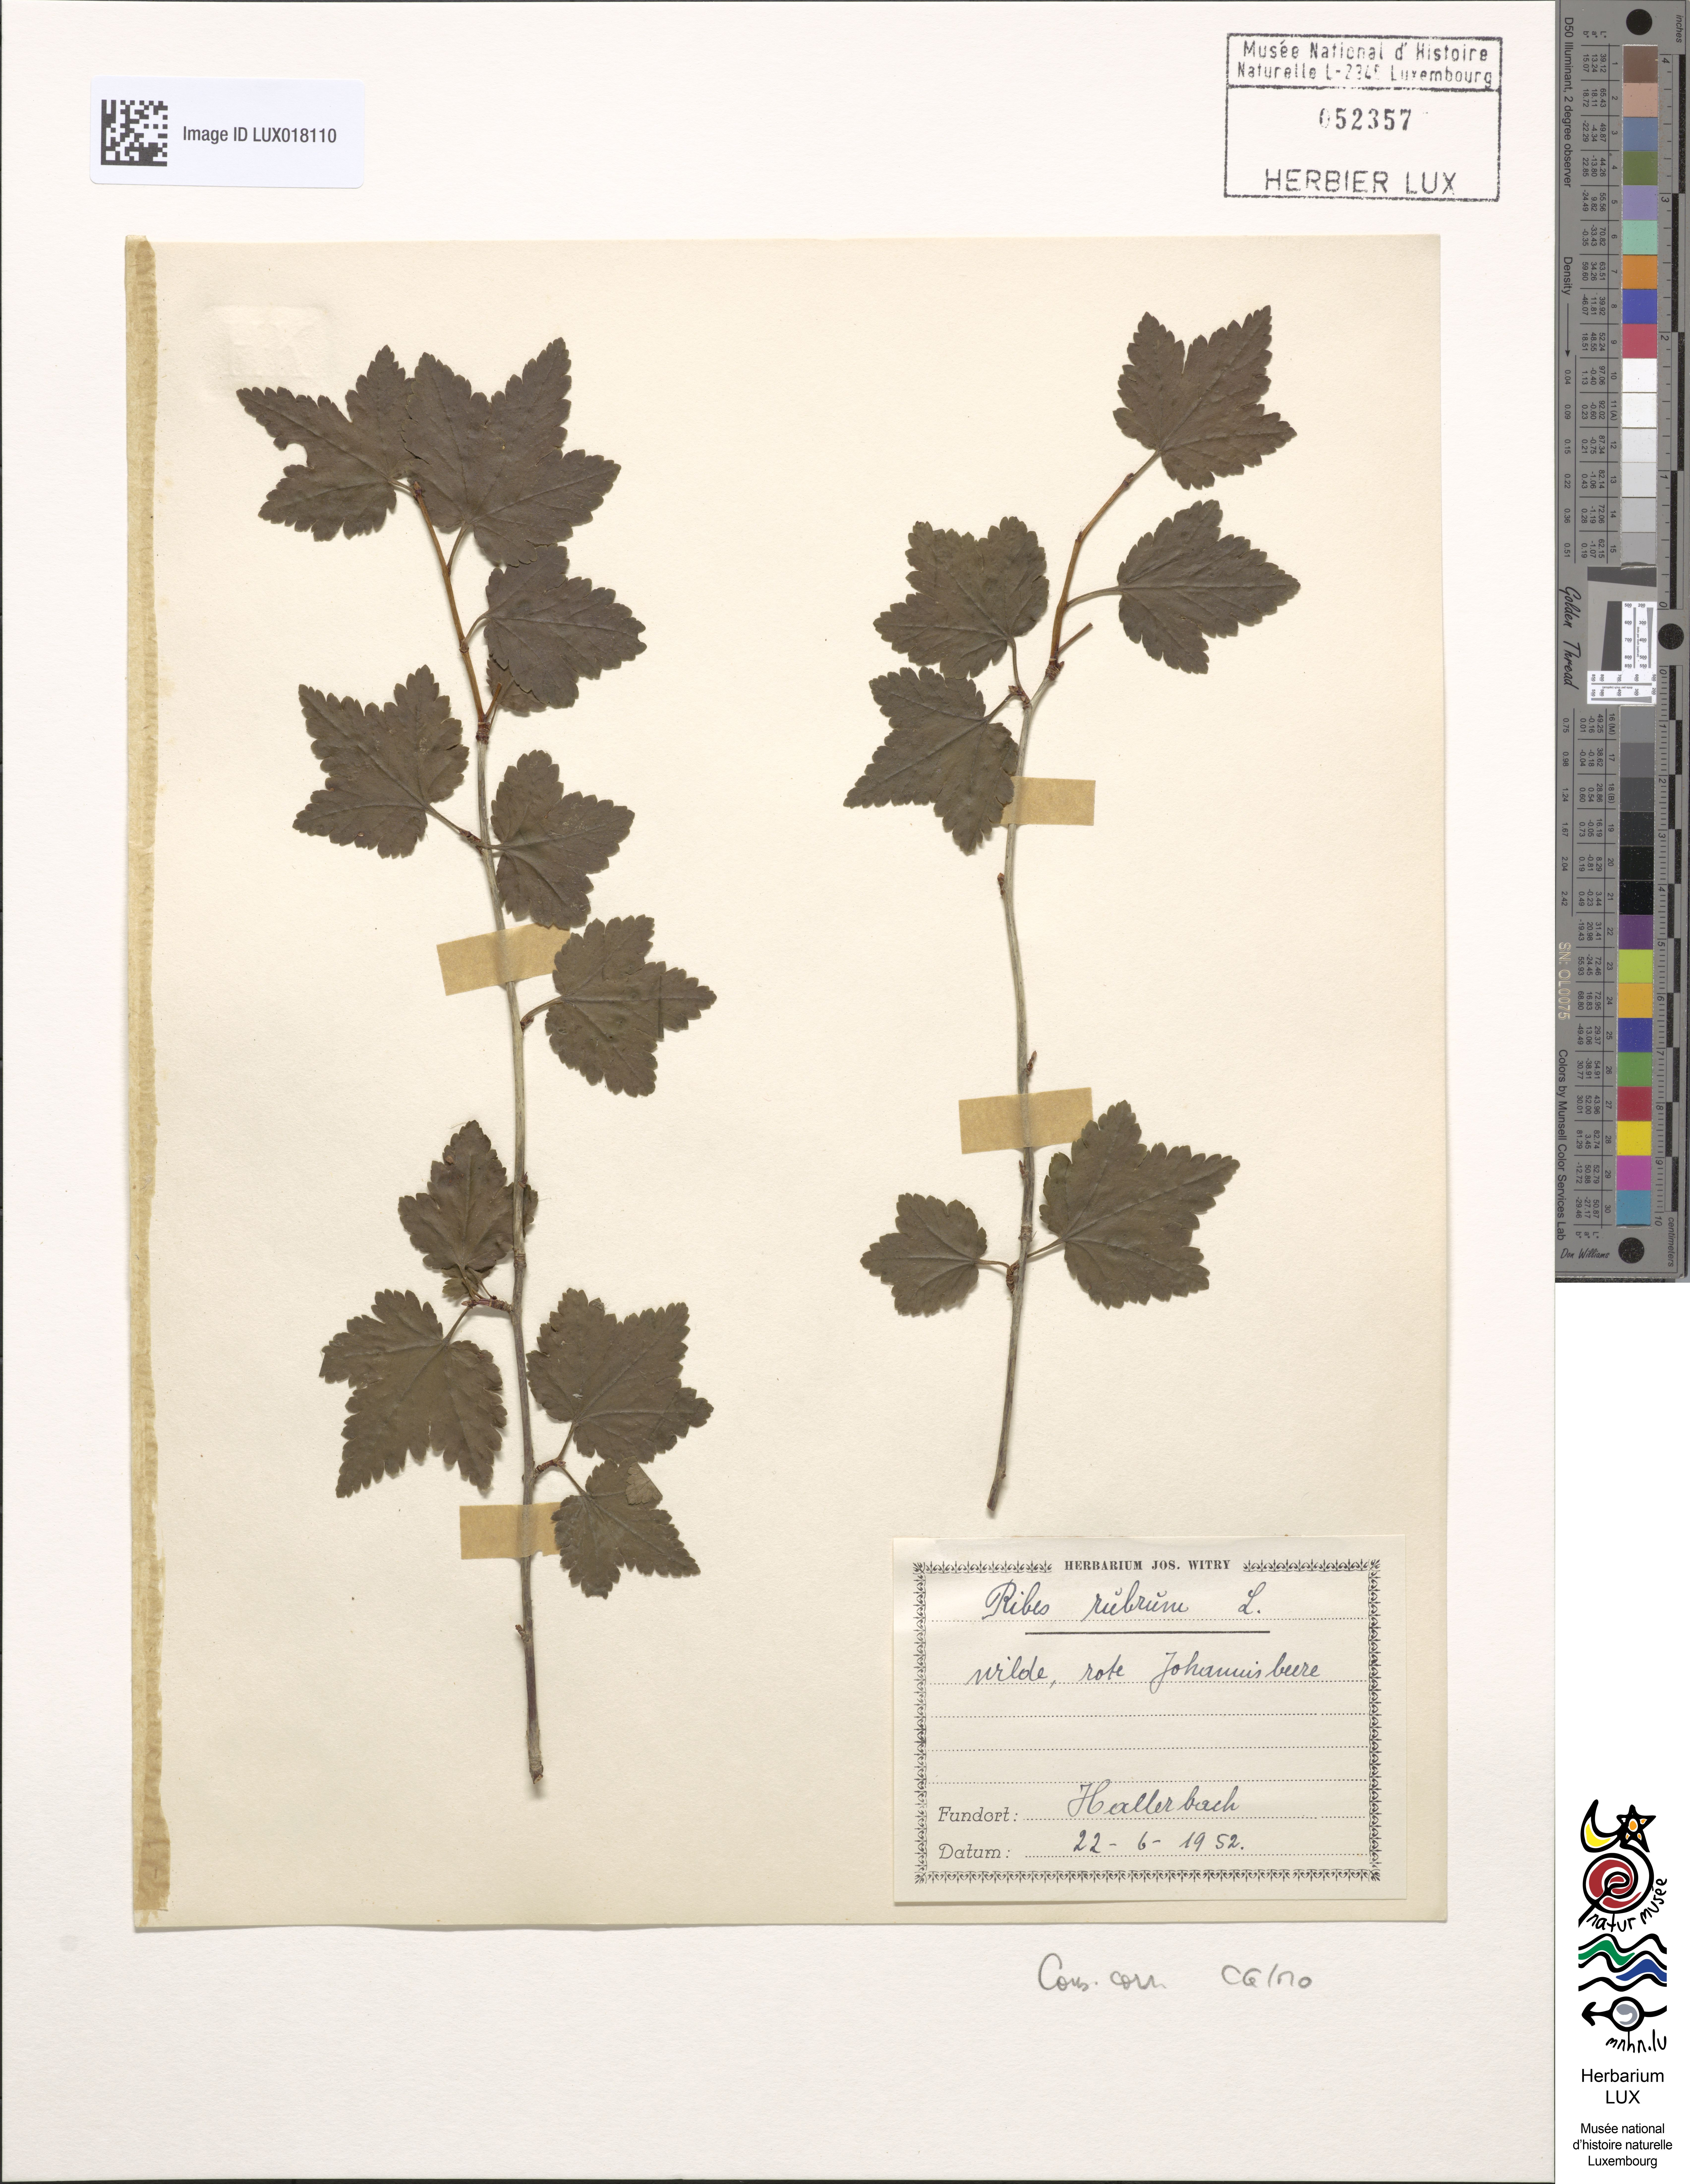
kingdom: Plantae
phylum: Tracheophyta
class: Magnoliopsida
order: Saxifragales
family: Grossulariaceae
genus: Ribes
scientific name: Ribes rubrum
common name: Red currant
